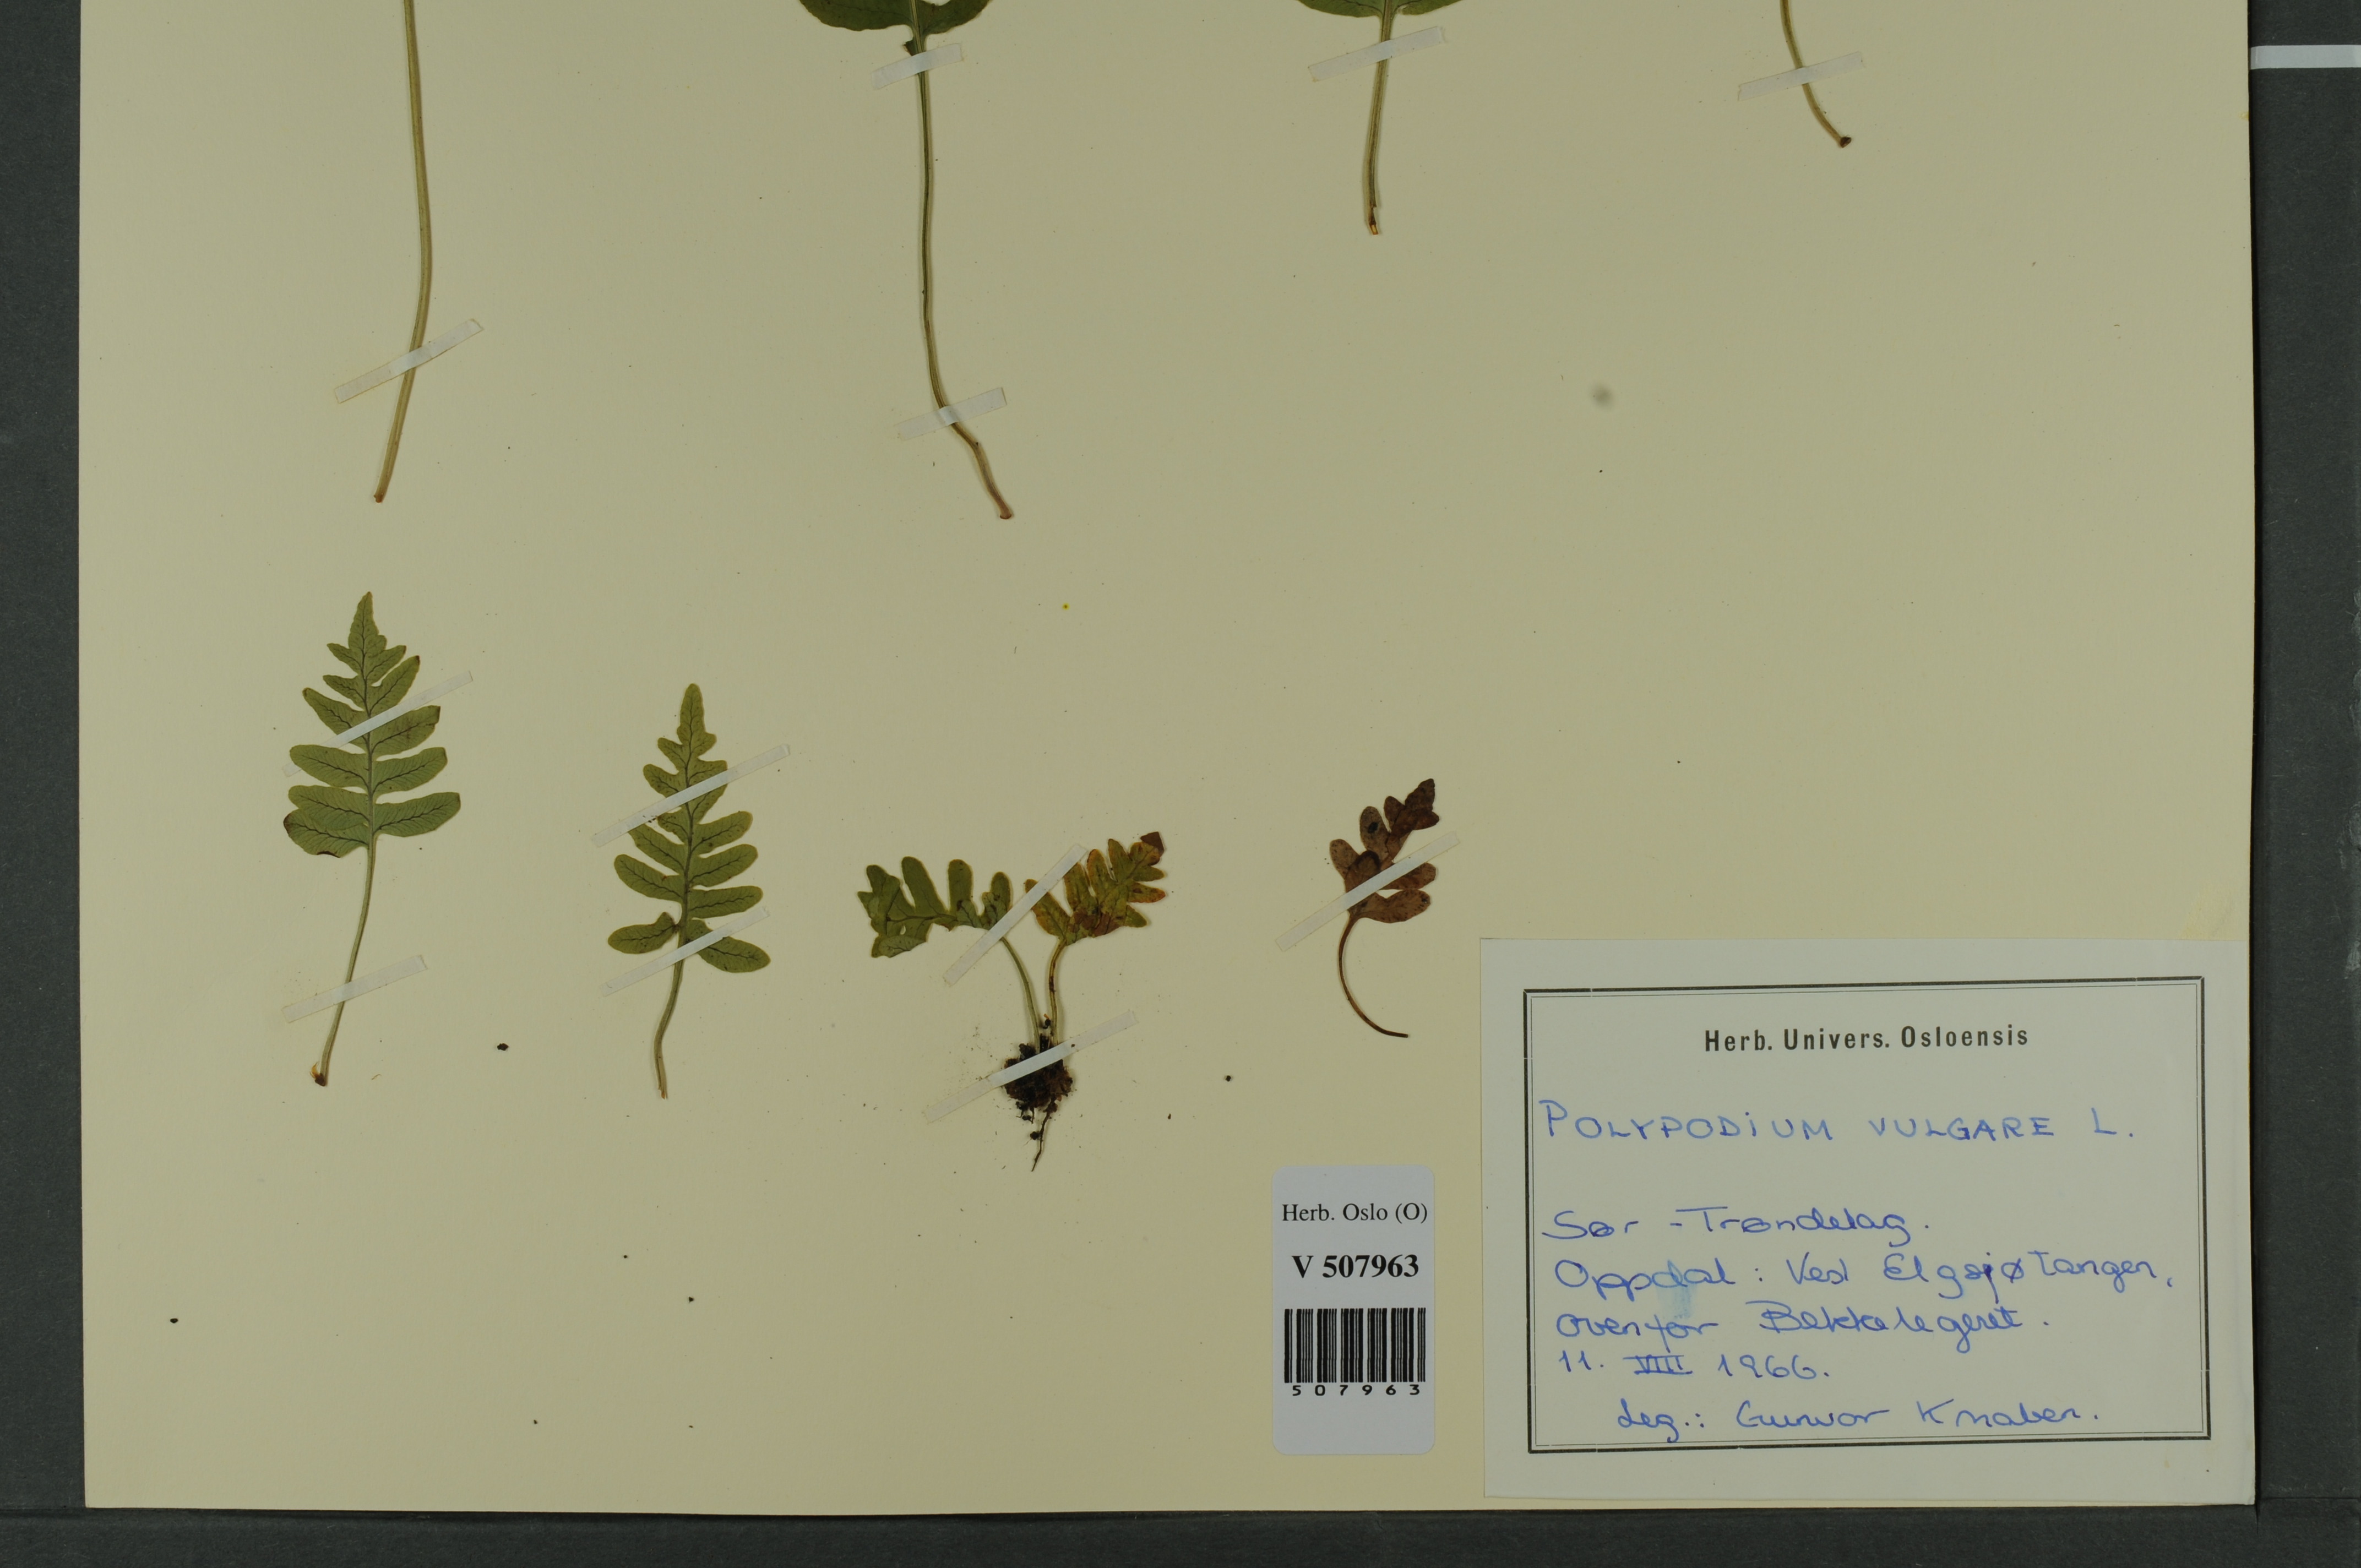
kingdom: Plantae
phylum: Tracheophyta
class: Polypodiopsida
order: Polypodiales
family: Polypodiaceae
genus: Polypodium
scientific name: Polypodium vulgare
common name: Common polypody
